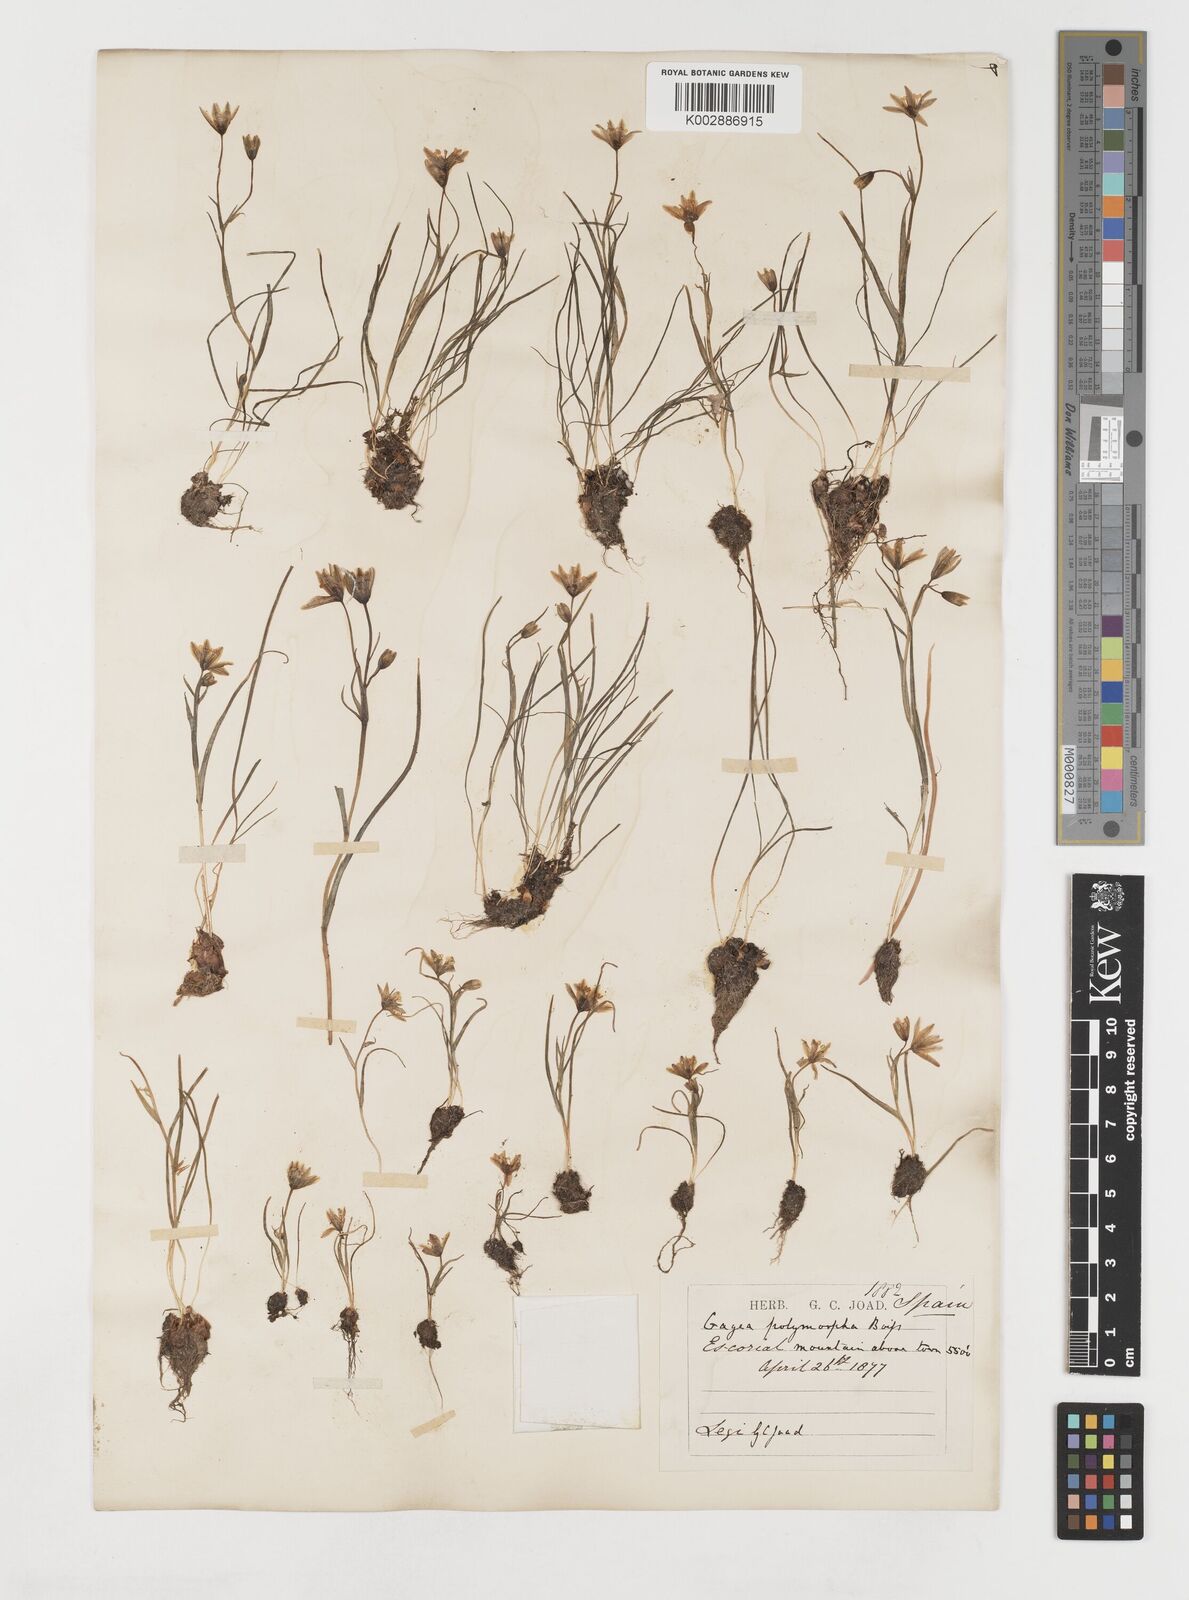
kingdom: Plantae
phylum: Tracheophyta
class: Liliopsida
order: Liliales
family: Liliaceae
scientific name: Liliaceae
